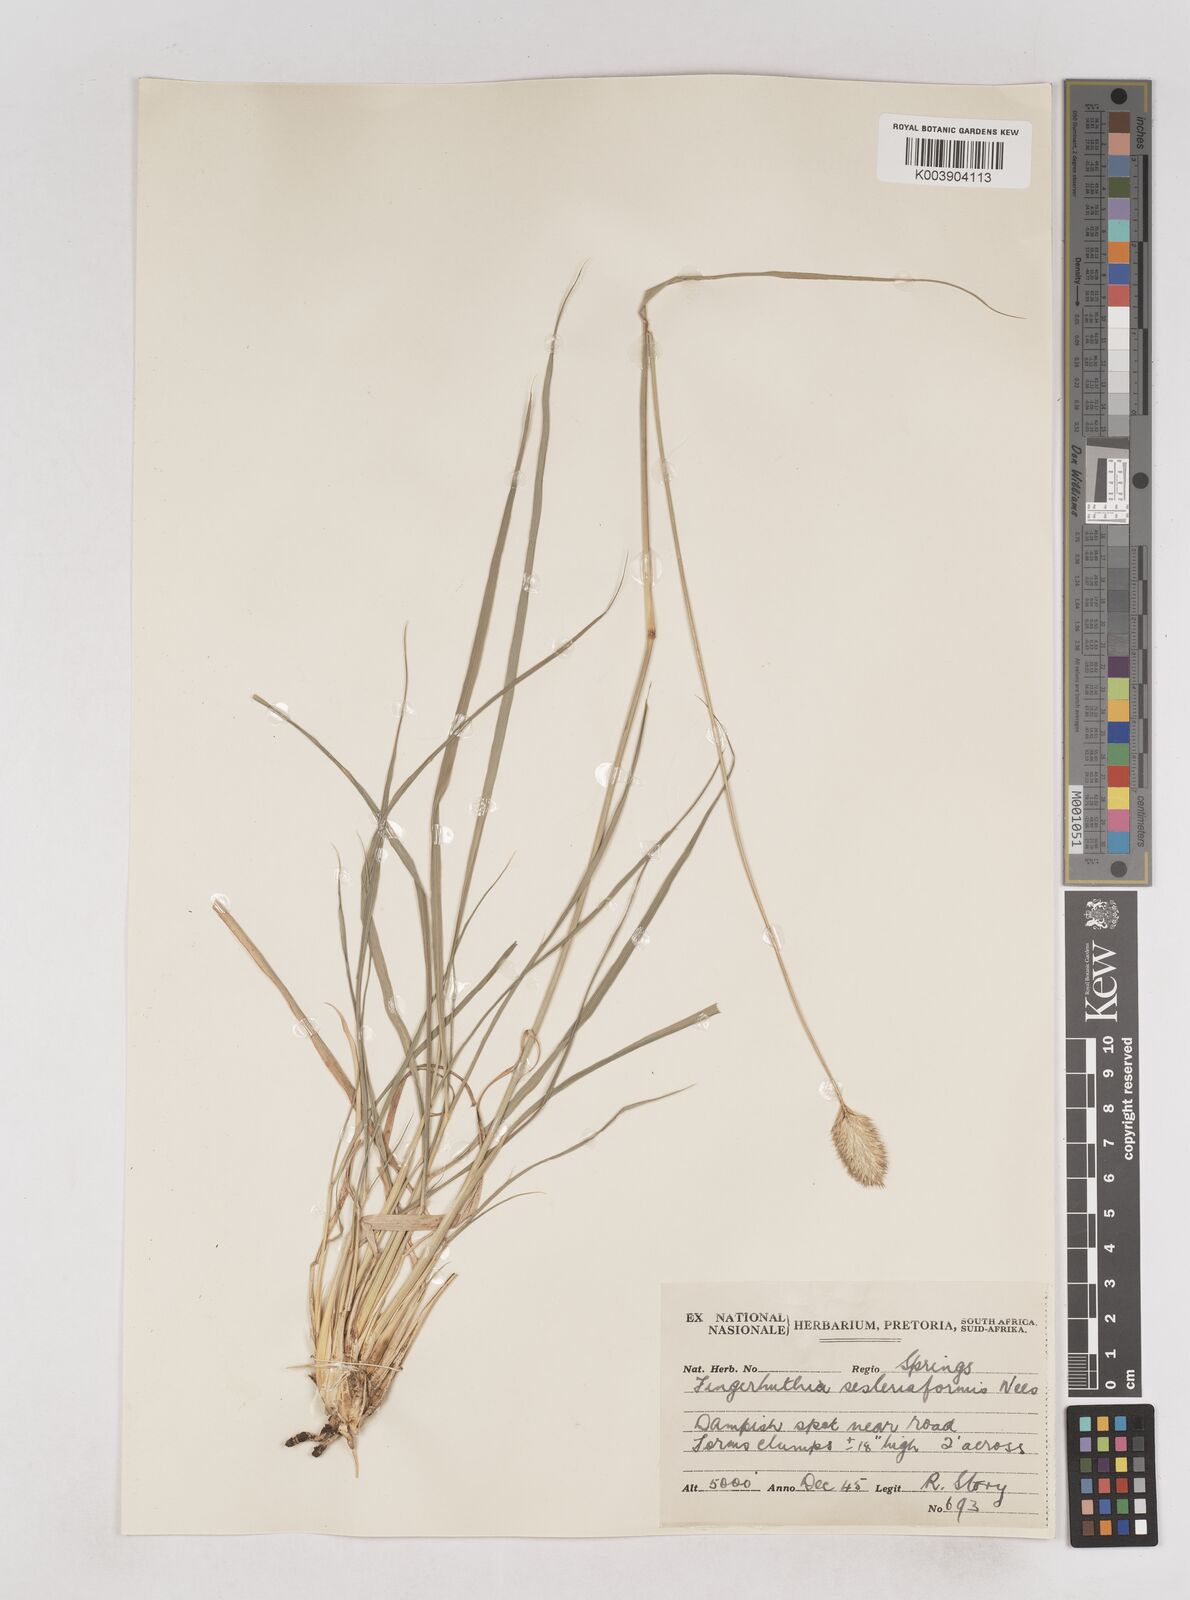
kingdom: Plantae
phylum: Tracheophyta
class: Liliopsida
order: Poales
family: Poaceae
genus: Fingerhuthia
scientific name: Fingerhuthia sesleriiformis
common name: Thimble grass
